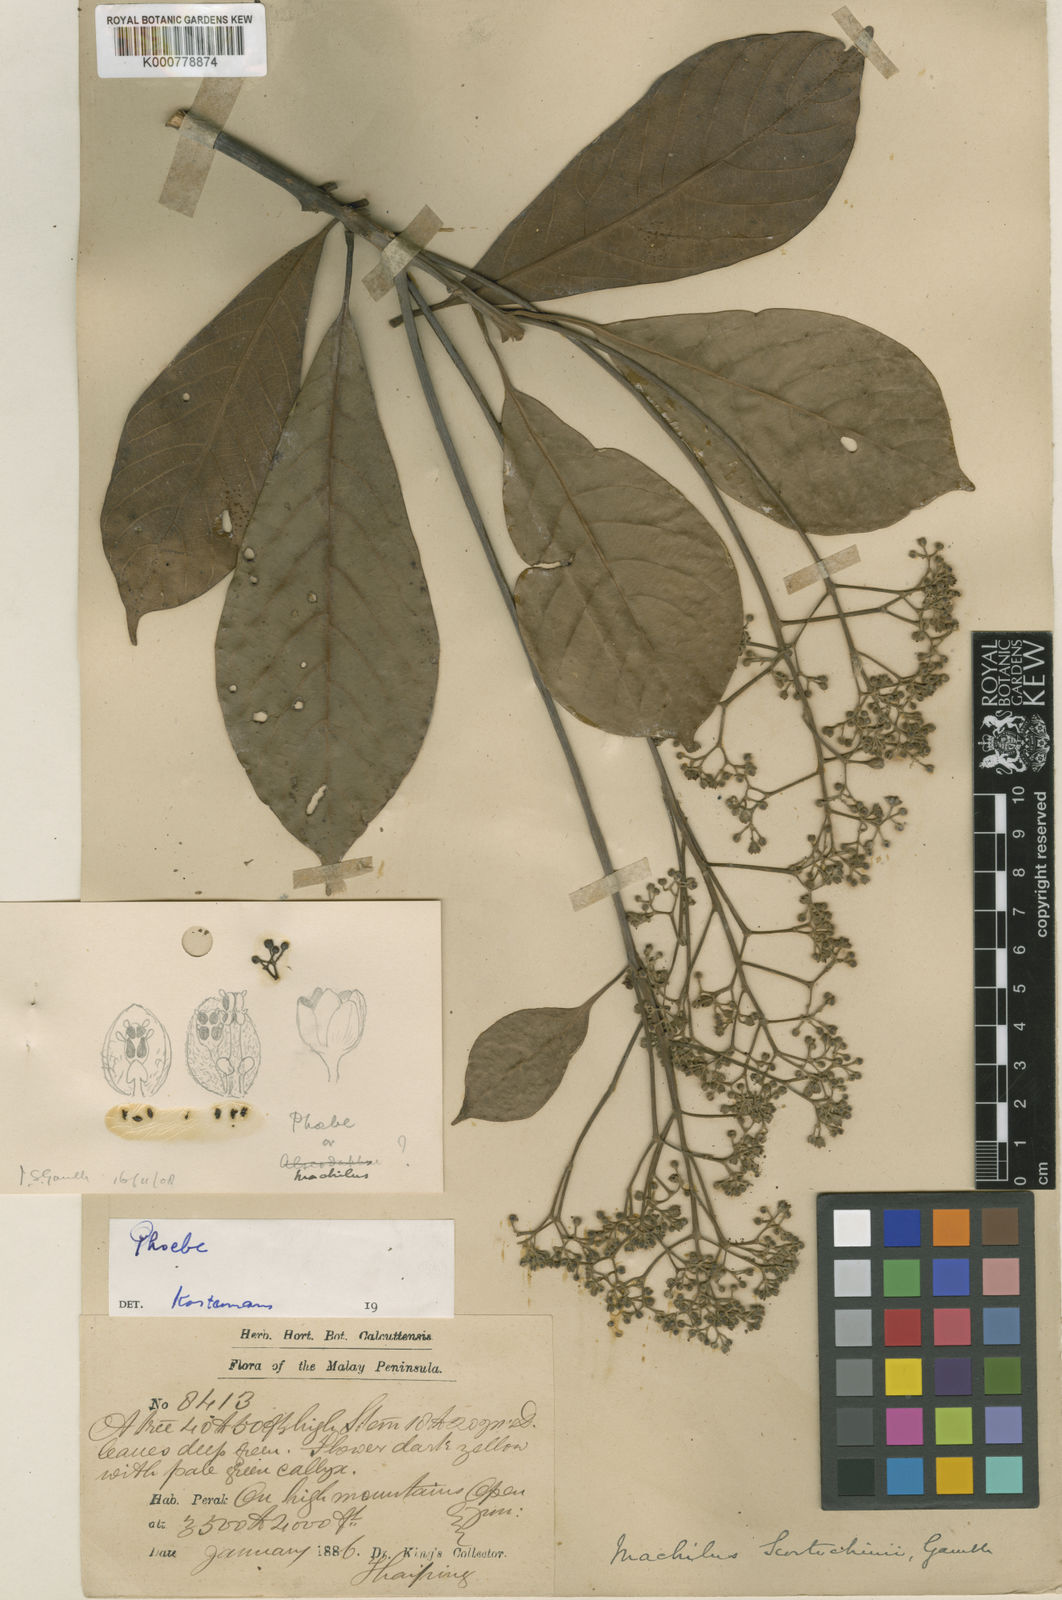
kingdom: Plantae
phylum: Tracheophyta
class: Magnoliopsida
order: Laurales
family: Lauraceae
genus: Phoebe
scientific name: Phoebe scortechinii
